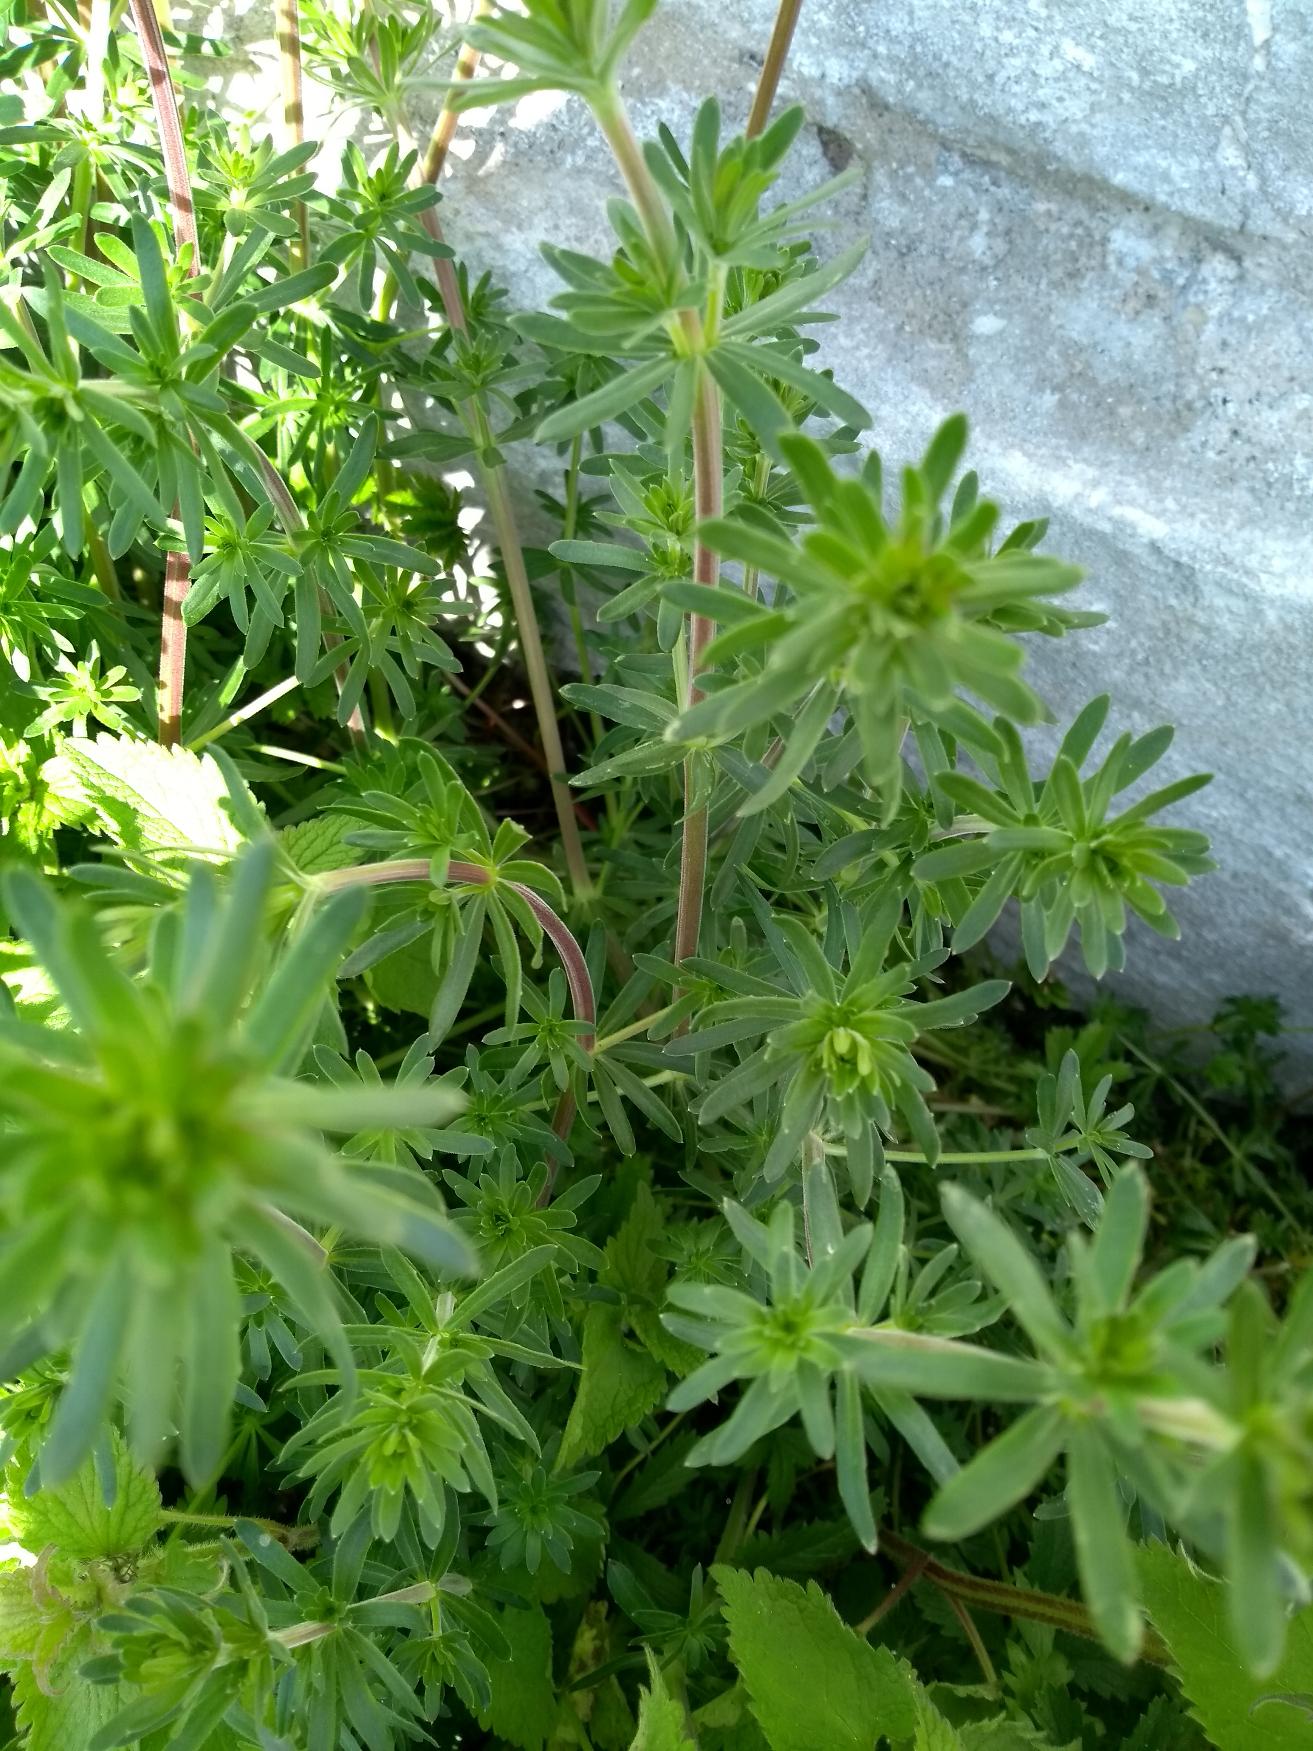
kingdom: Plantae
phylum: Tracheophyta
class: Magnoliopsida
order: Gentianales
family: Rubiaceae
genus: Galium
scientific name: Galium mollugo
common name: Hvid snerre
